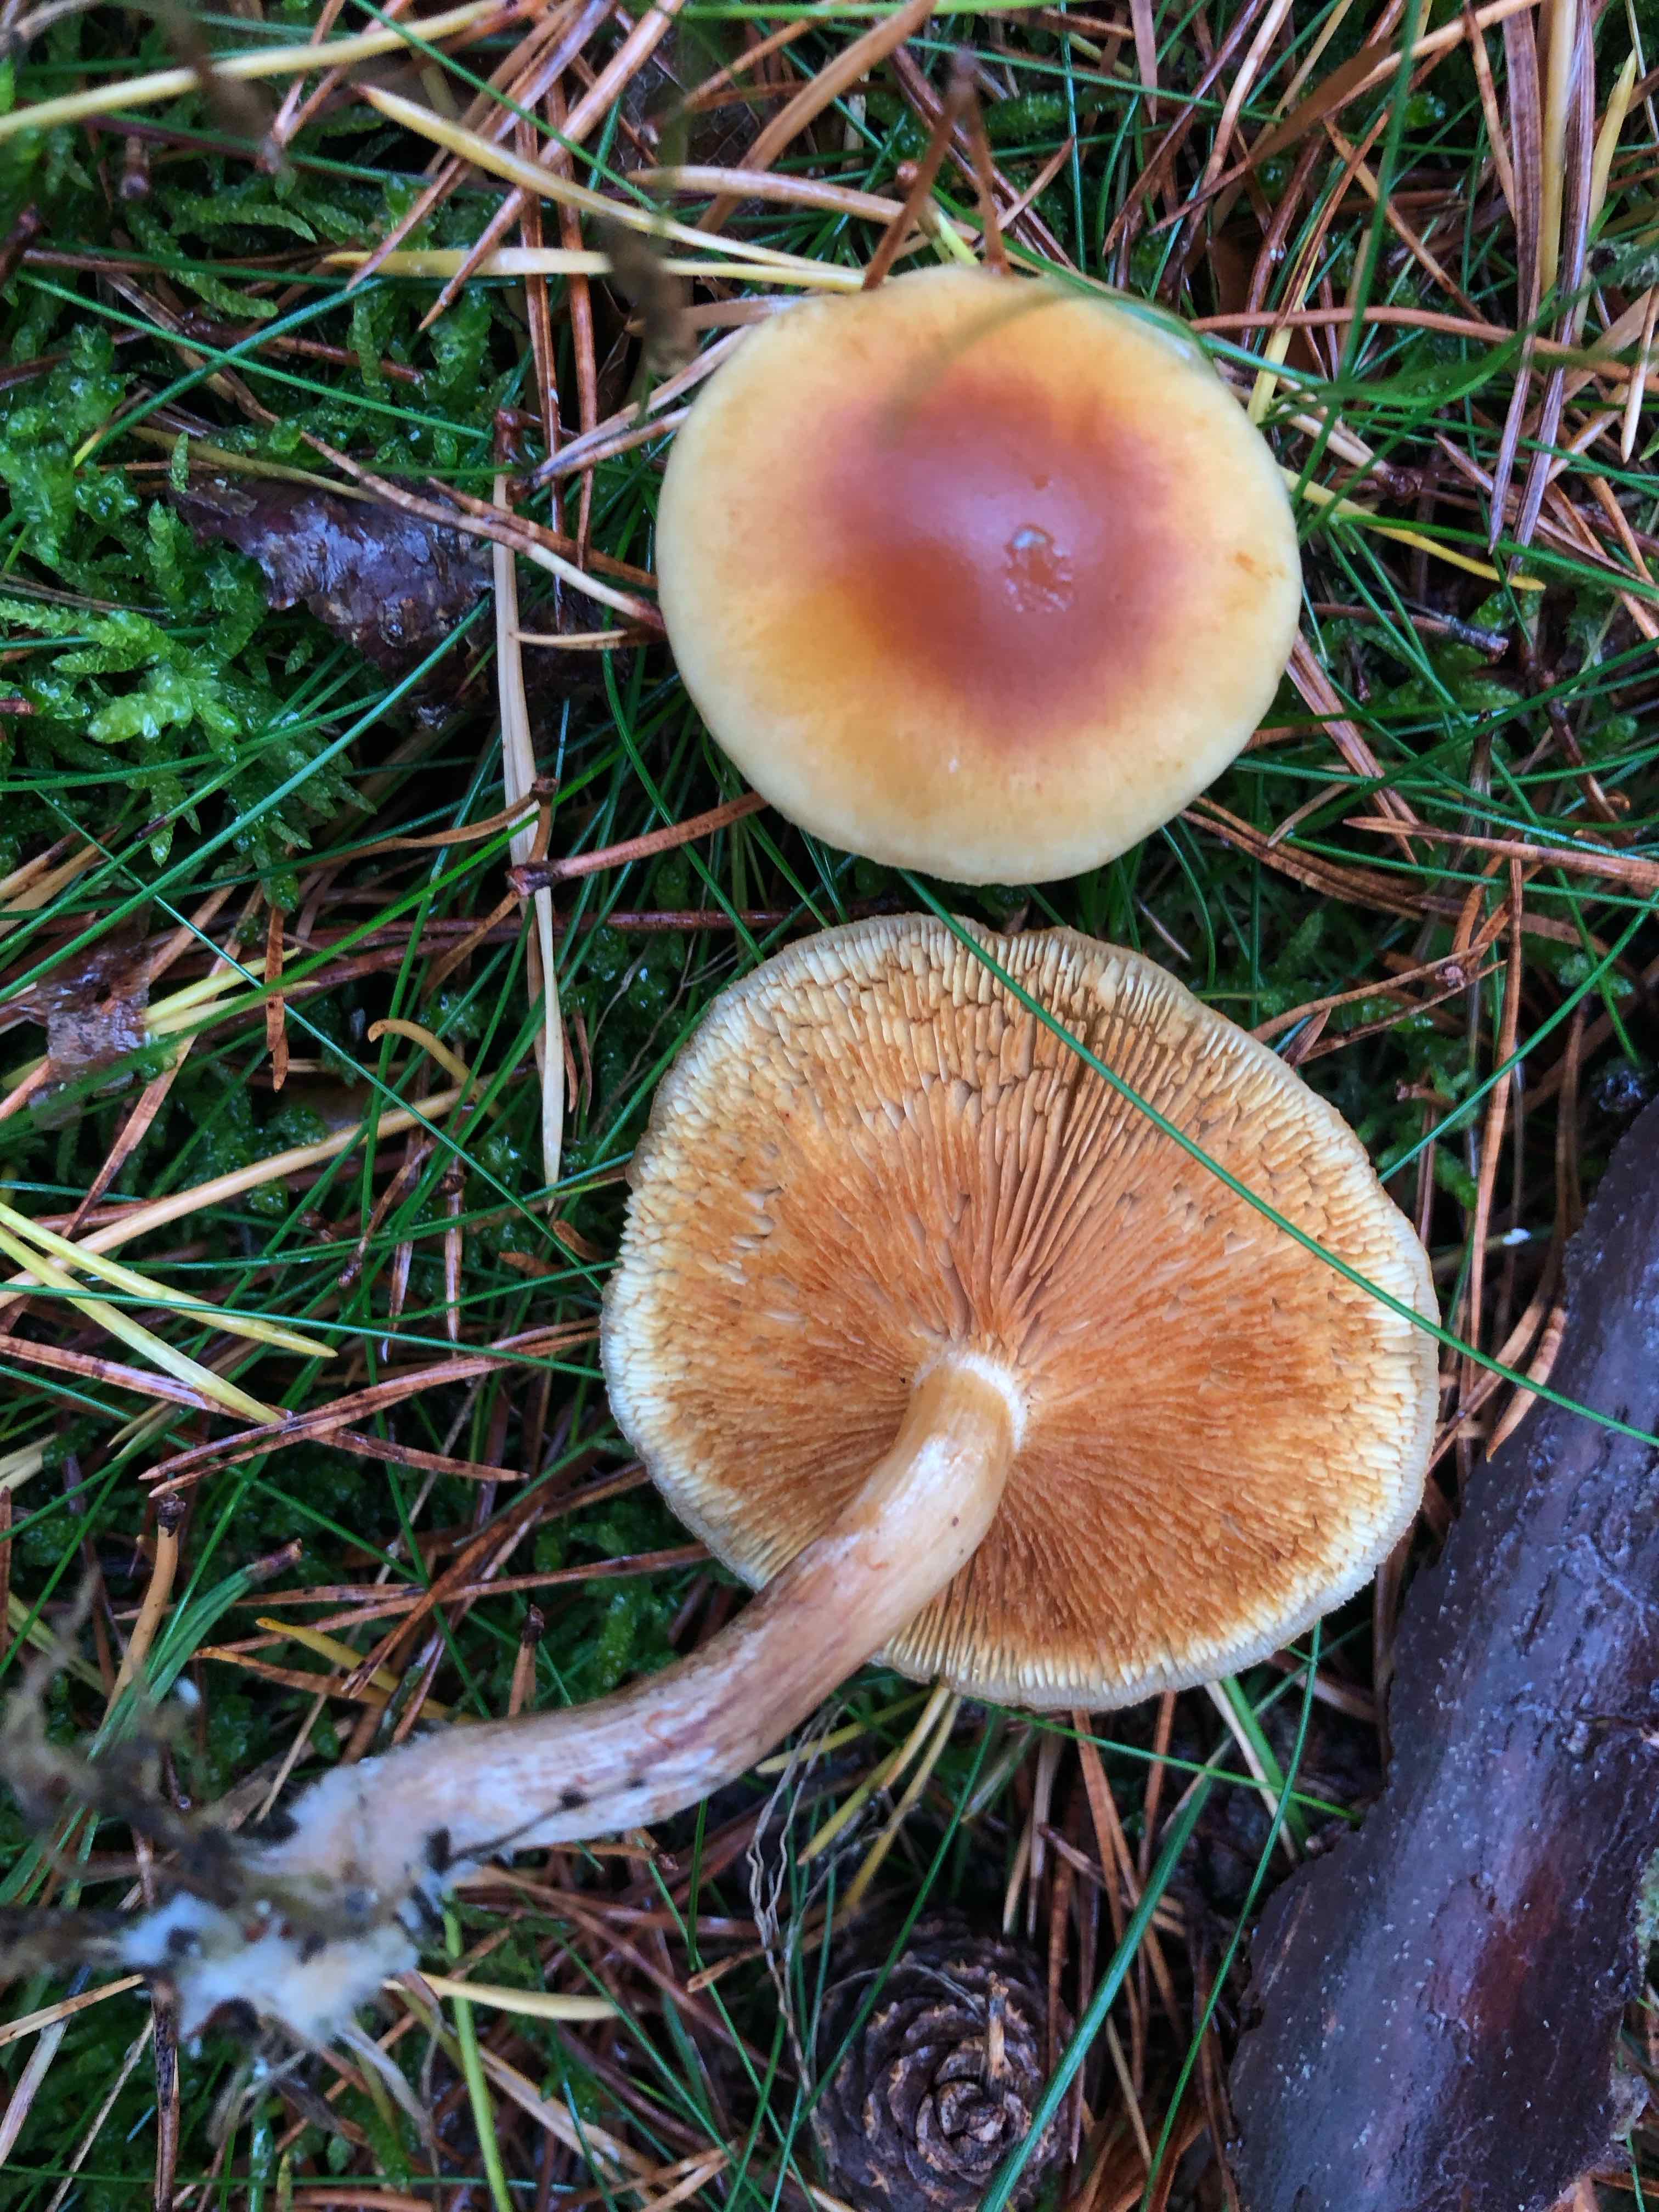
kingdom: Fungi
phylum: Basidiomycota
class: Agaricomycetes
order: Agaricales
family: Hymenogastraceae
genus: Gymnopilus
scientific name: Gymnopilus penetrans
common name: plettet flammehat
